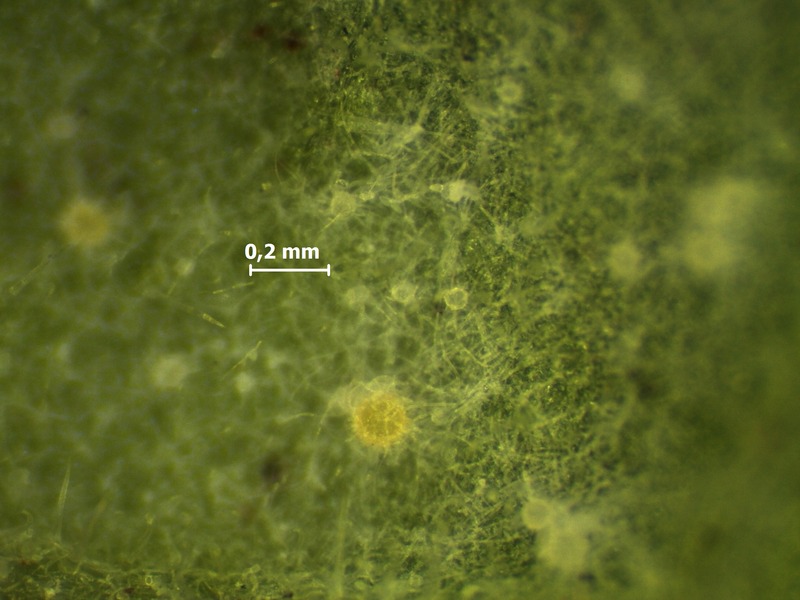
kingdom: Fungi
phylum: Ascomycota
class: Leotiomycetes
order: Helotiales
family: Erysiphaceae
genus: Golovinomyces
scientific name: Golovinomyces cynoglossi
